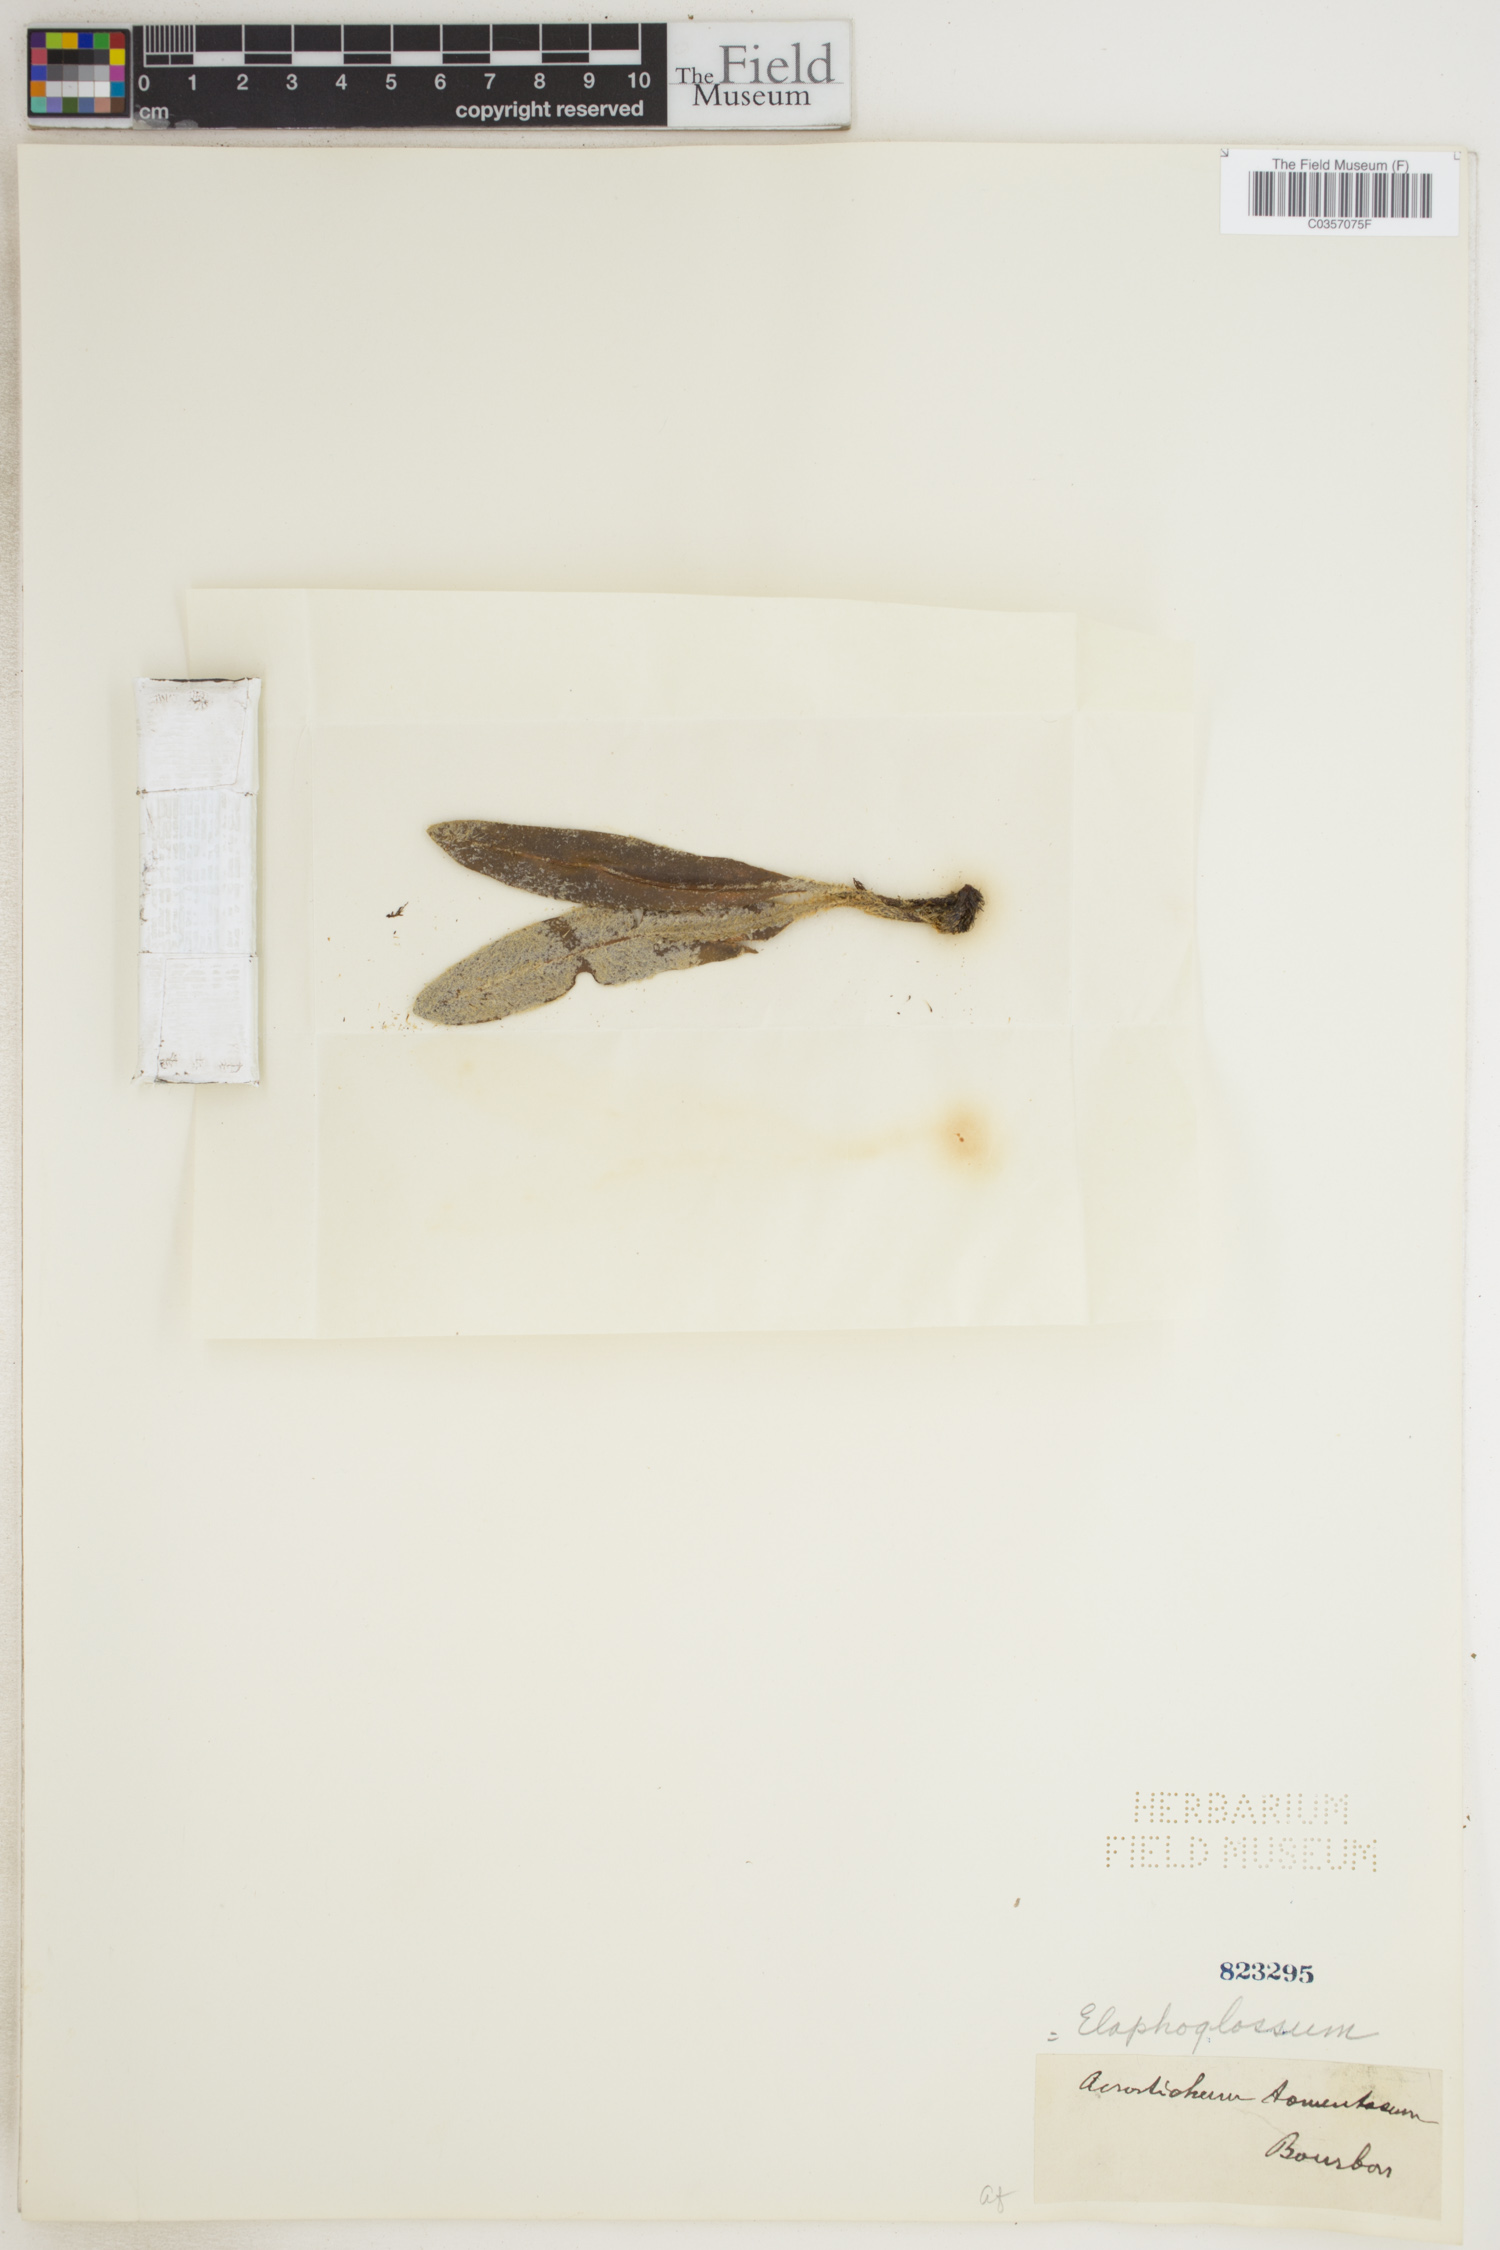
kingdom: Plantae
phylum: Tracheophyta
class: Polypodiopsida
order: Polypodiales
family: Dryopteridaceae
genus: Elaphoglossum
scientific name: Elaphoglossum
